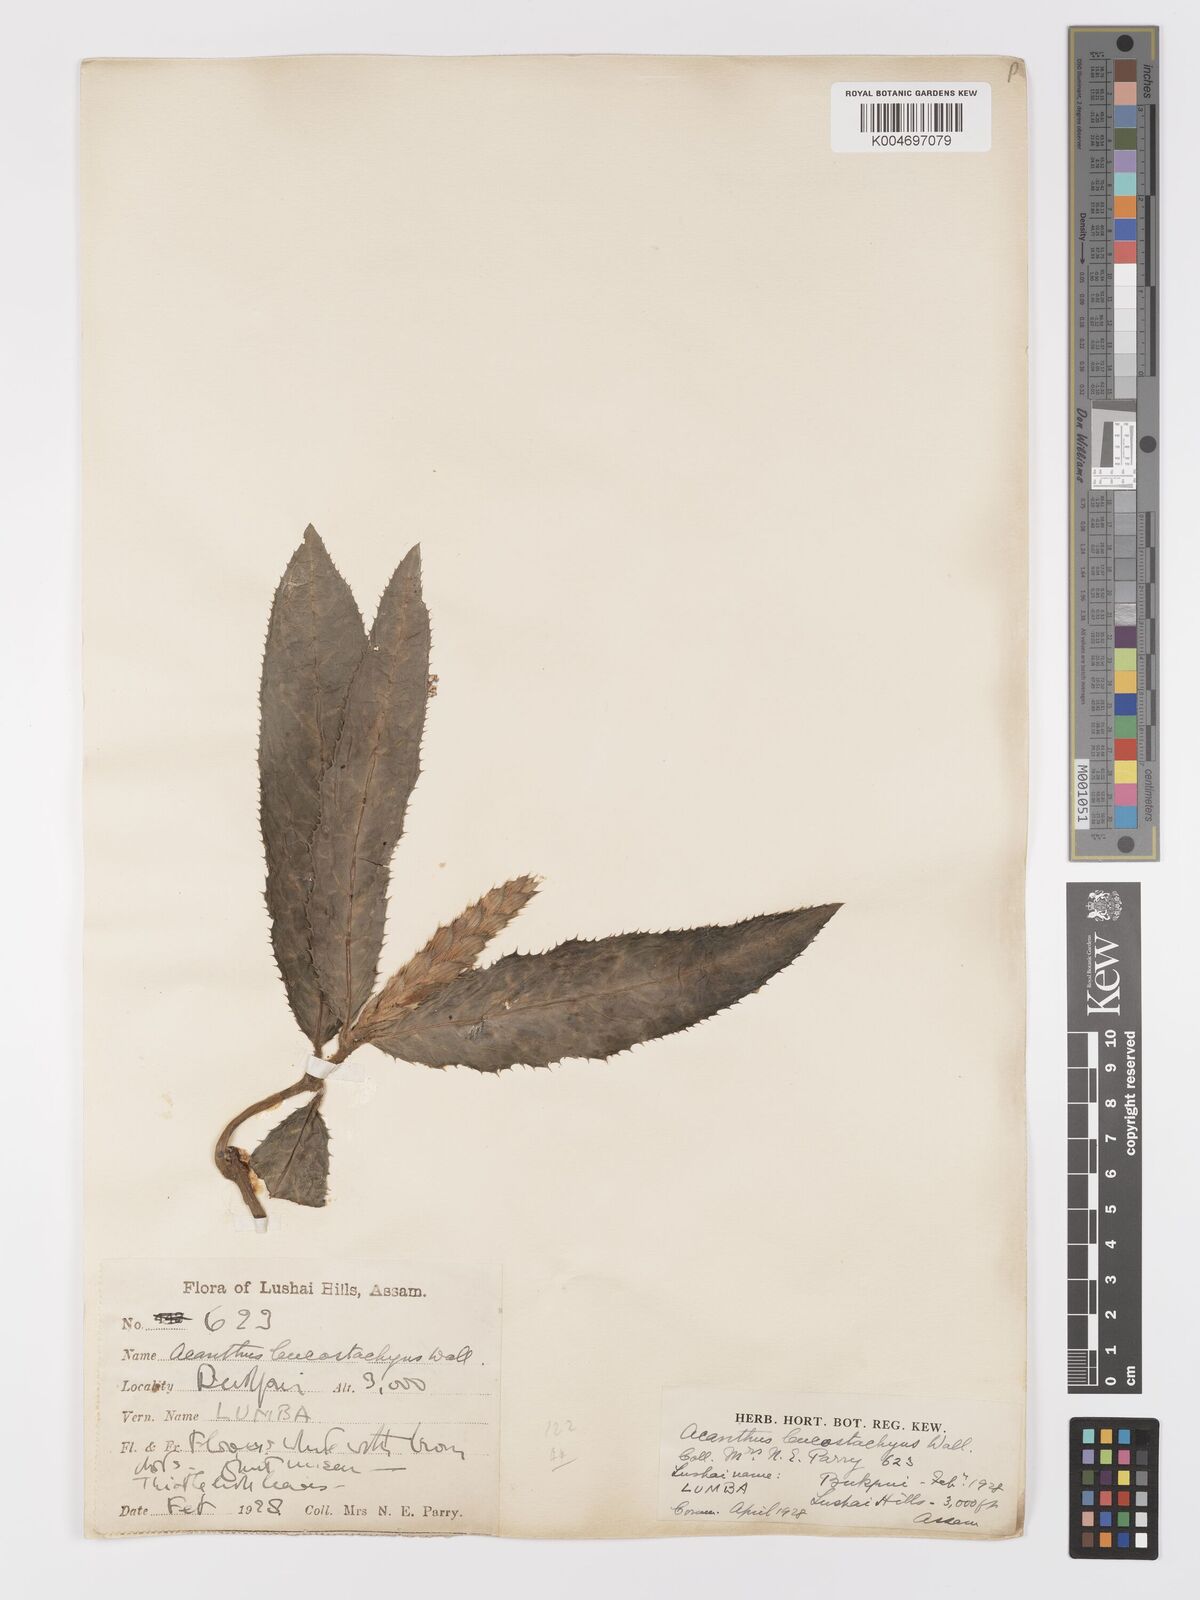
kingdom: Plantae
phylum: Tracheophyta
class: Magnoliopsida
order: Lamiales
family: Acanthaceae
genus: Acanthus
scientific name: Acanthus leucostachyus
